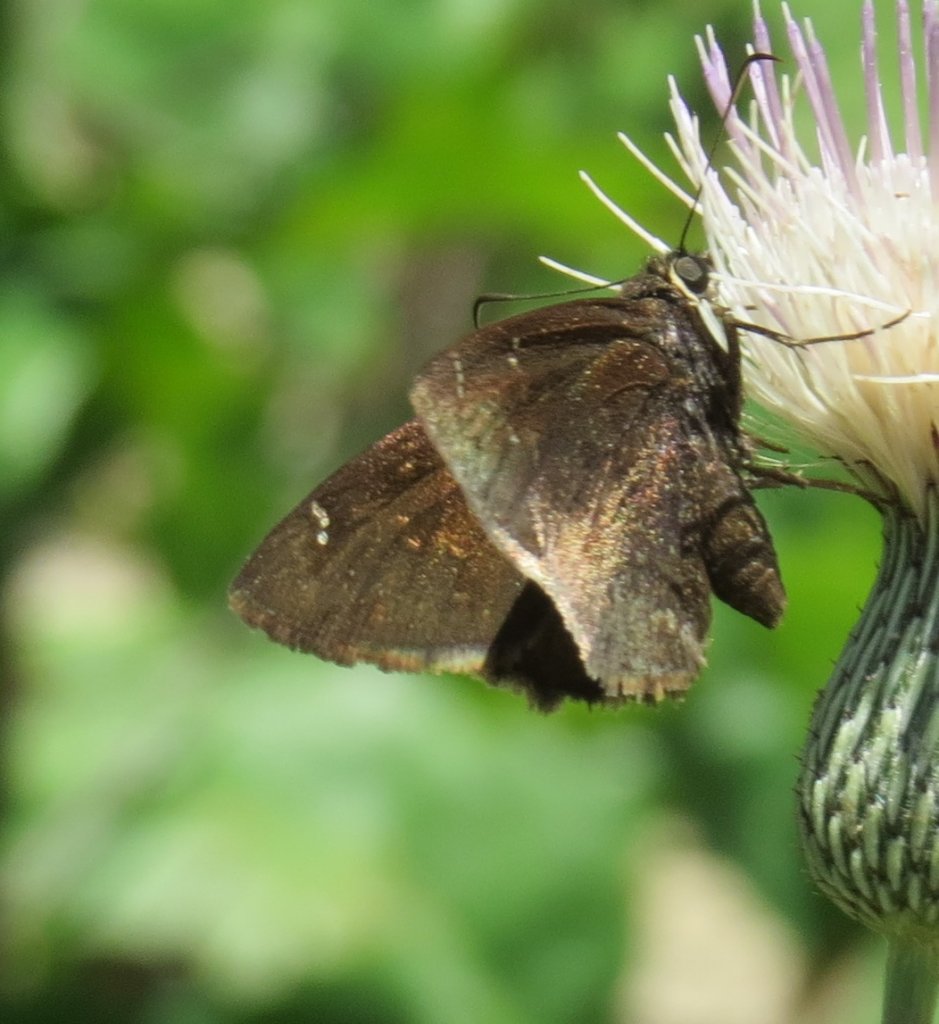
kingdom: Animalia
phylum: Arthropoda
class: Insecta
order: Lepidoptera
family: Hesperiidae
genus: Autochton
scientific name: Autochton
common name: Northern Cloudywing
